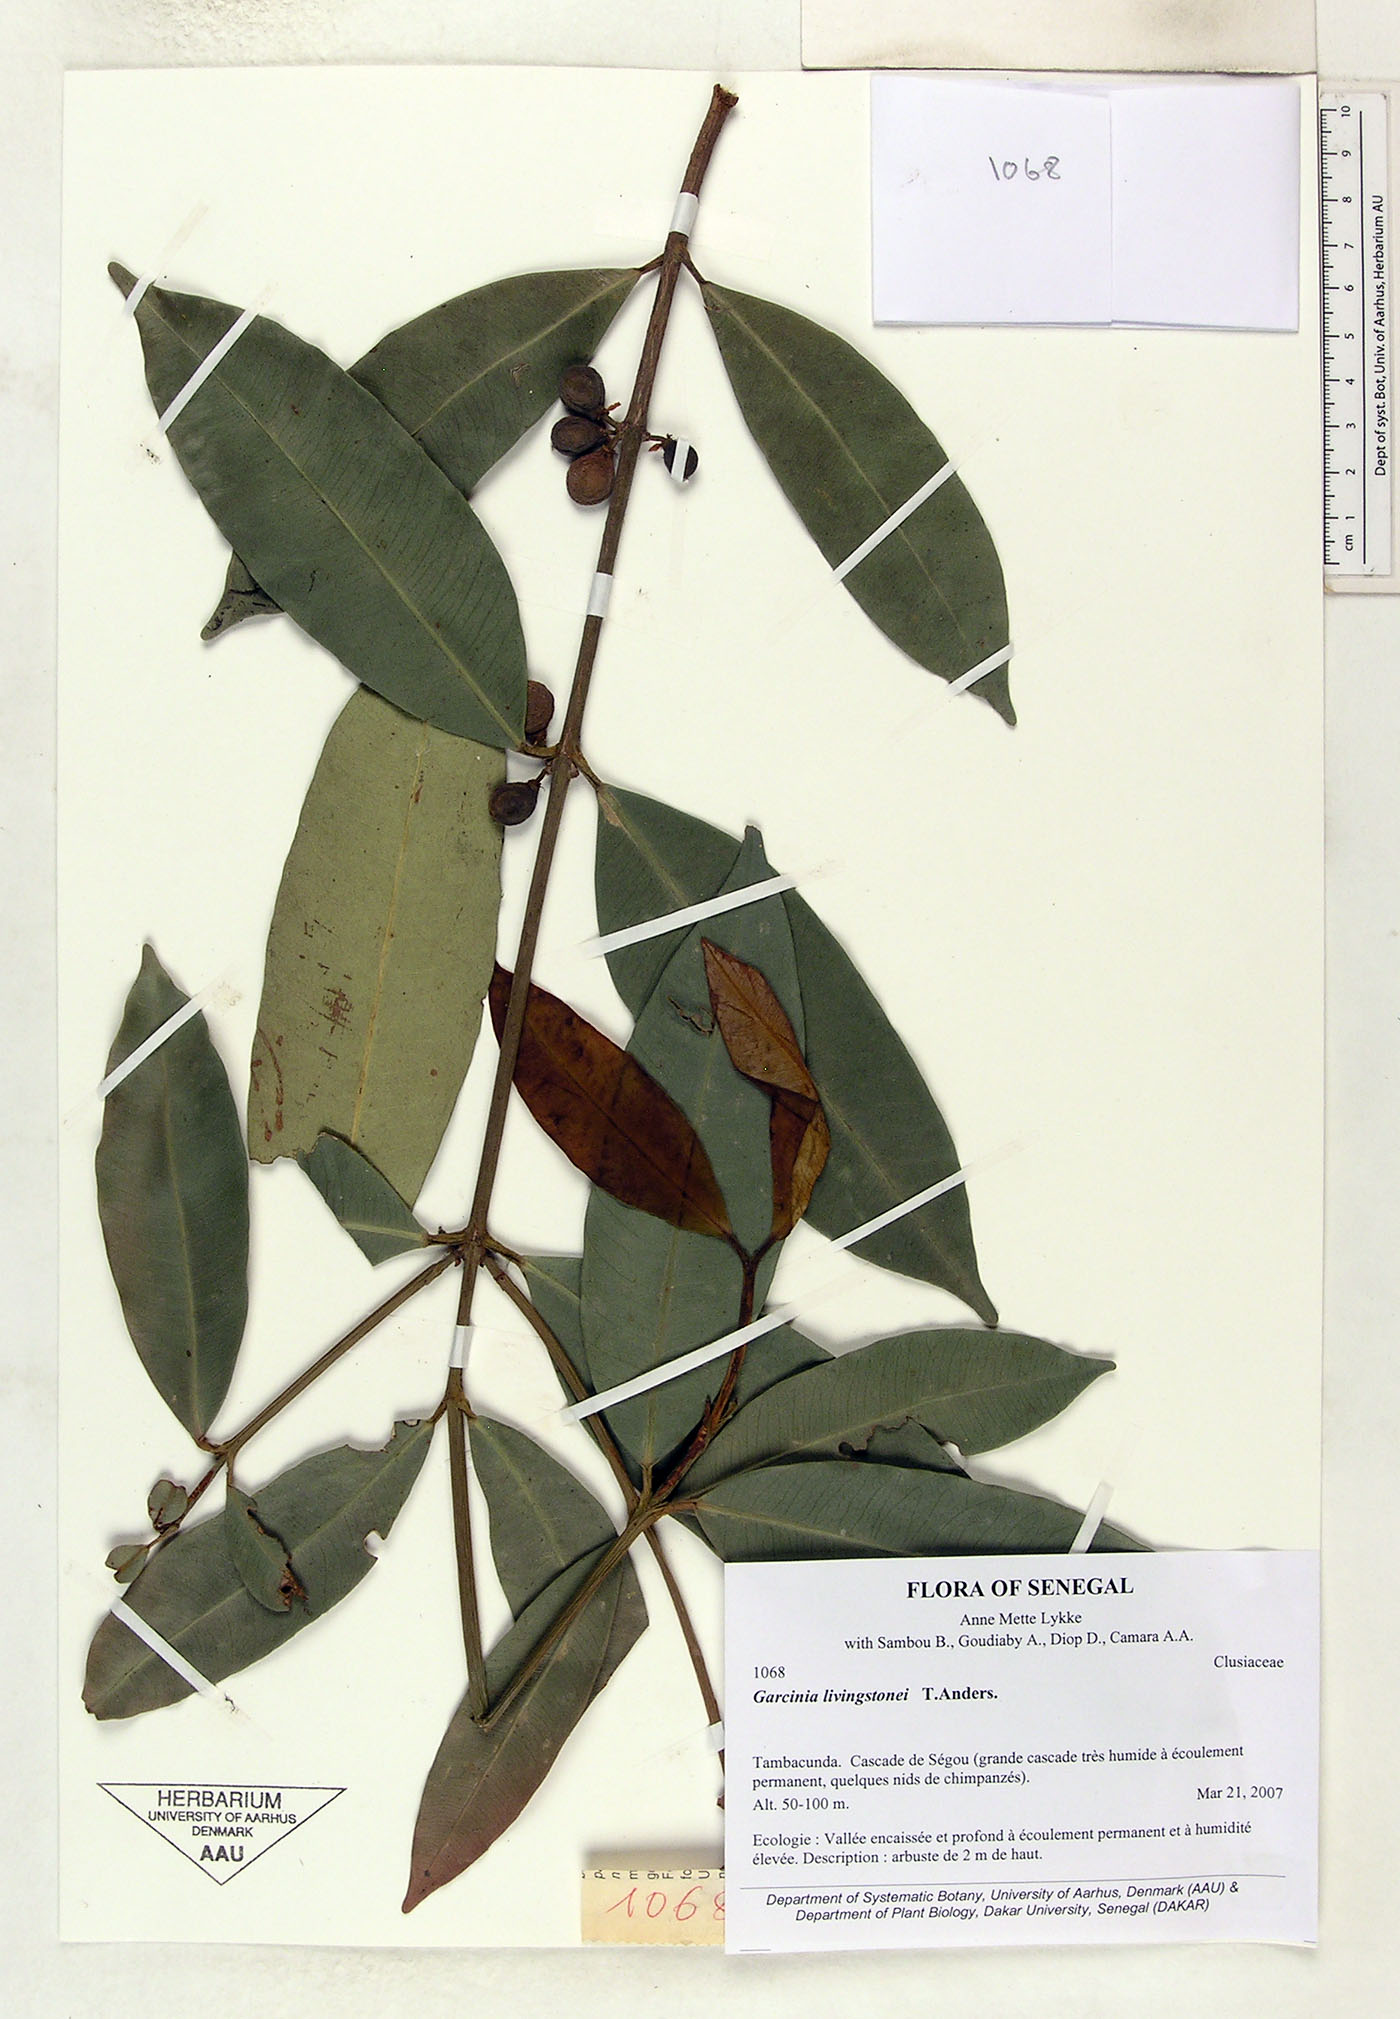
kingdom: Plantae
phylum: Tracheophyta
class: Magnoliopsida
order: Malpighiales
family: Clusiaceae
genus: Garcinia
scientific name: Garcinia livingstonei
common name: African mangosteen
